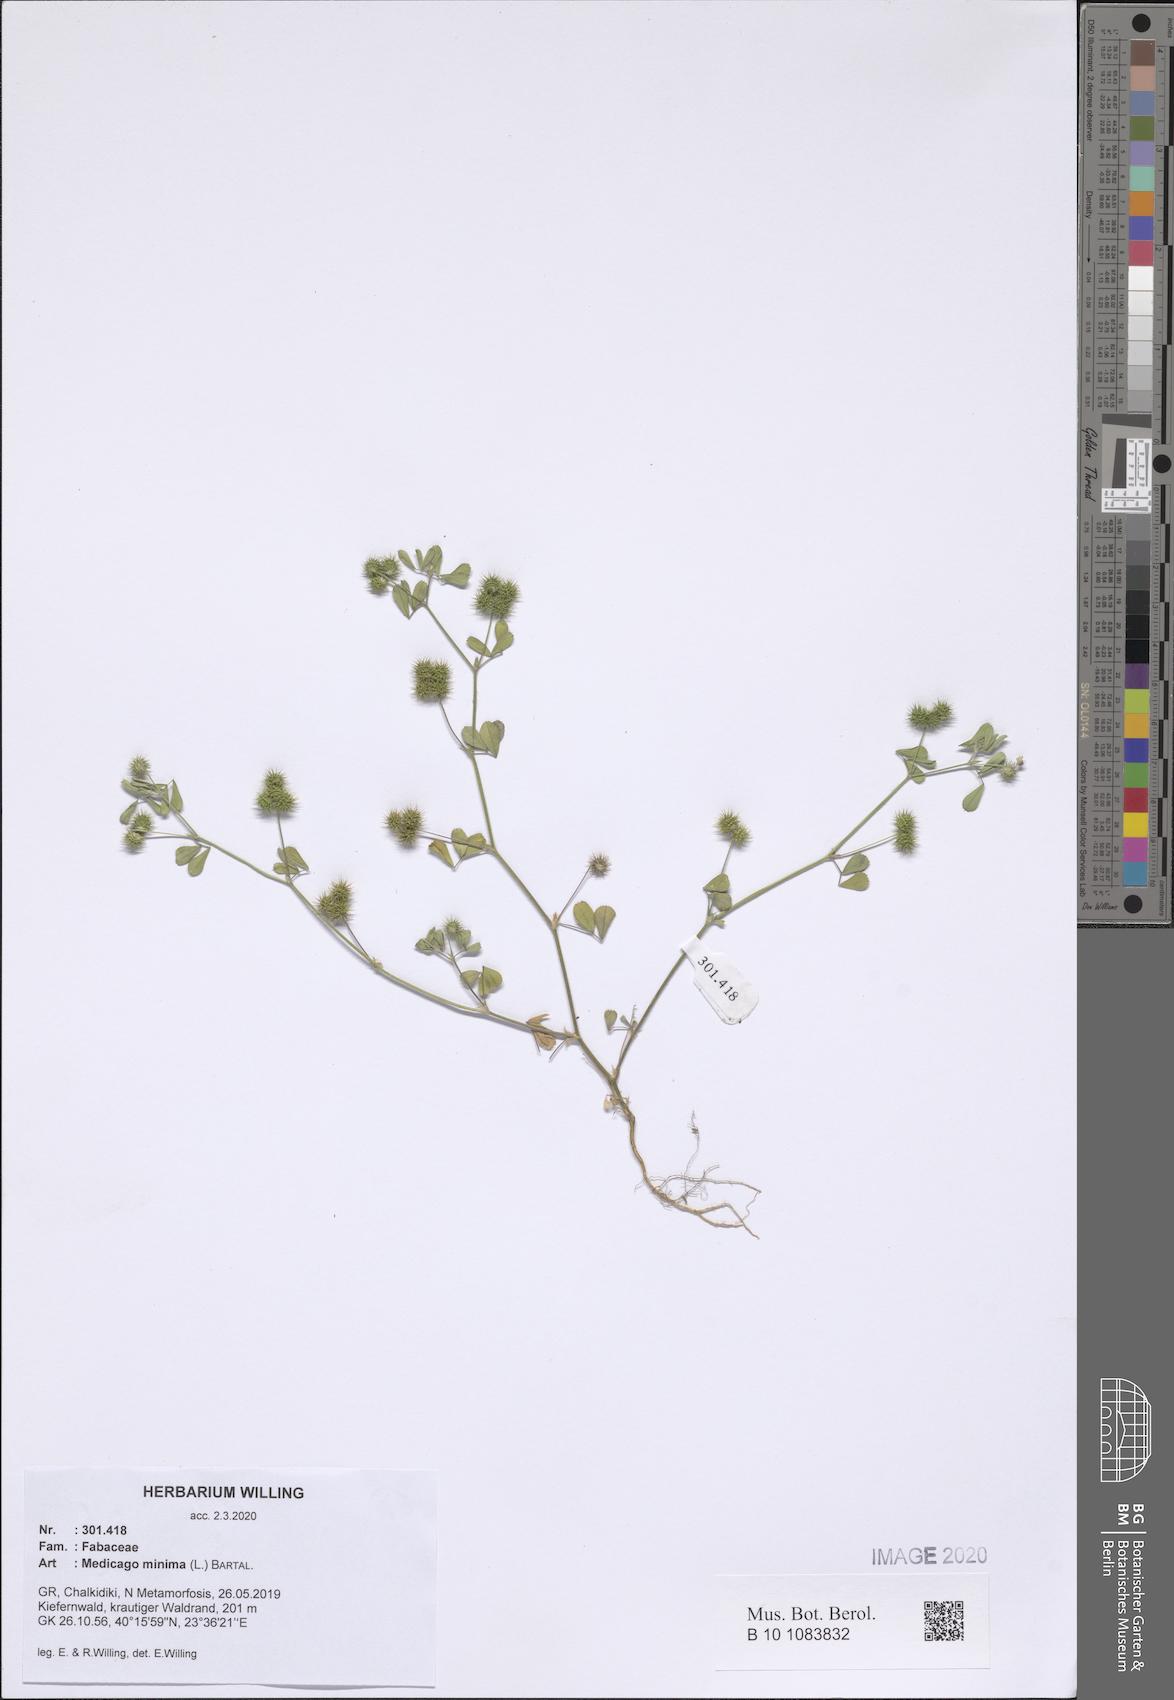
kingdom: Plantae
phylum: Tracheophyta
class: Magnoliopsida
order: Fabales
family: Fabaceae
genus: Medicago
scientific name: Medicago minima
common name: Little bur-clover
